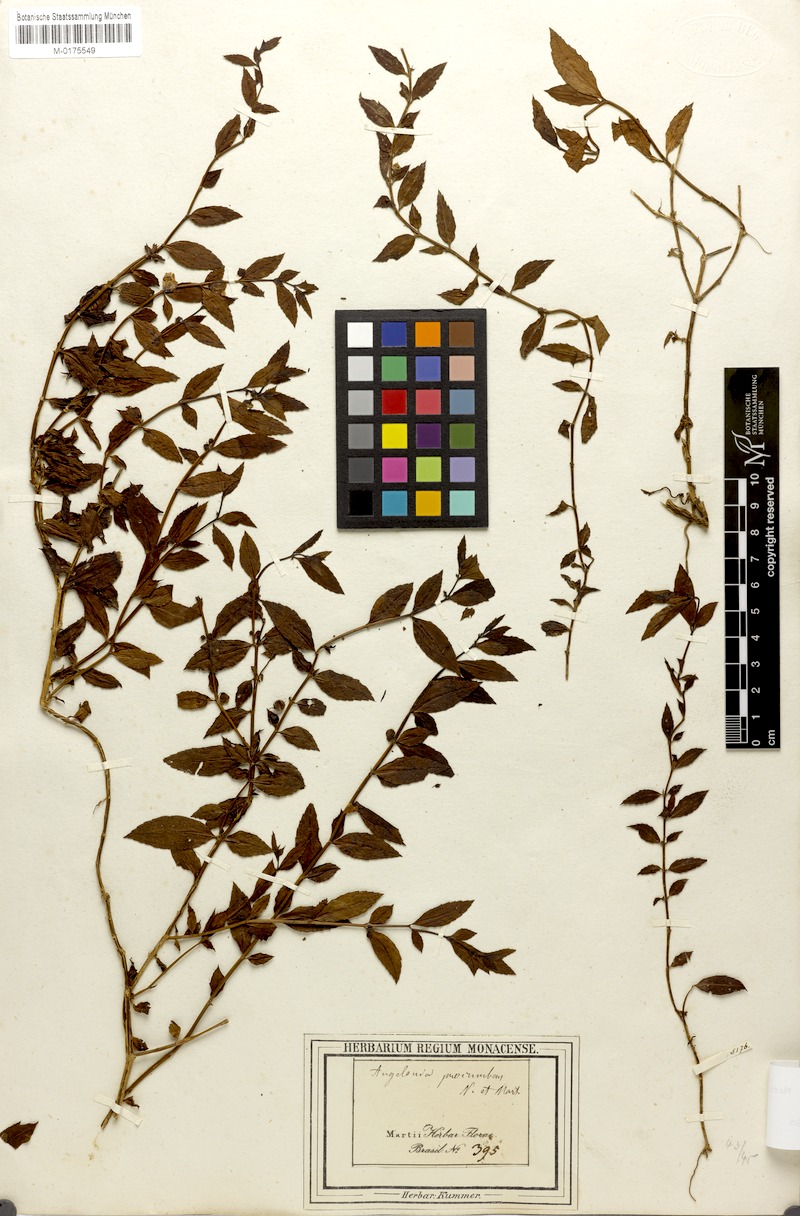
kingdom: Plantae
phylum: Tracheophyta
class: Magnoliopsida
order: Lamiales
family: Plantaginaceae
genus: Angelonia
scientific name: Angelonia procumbens
